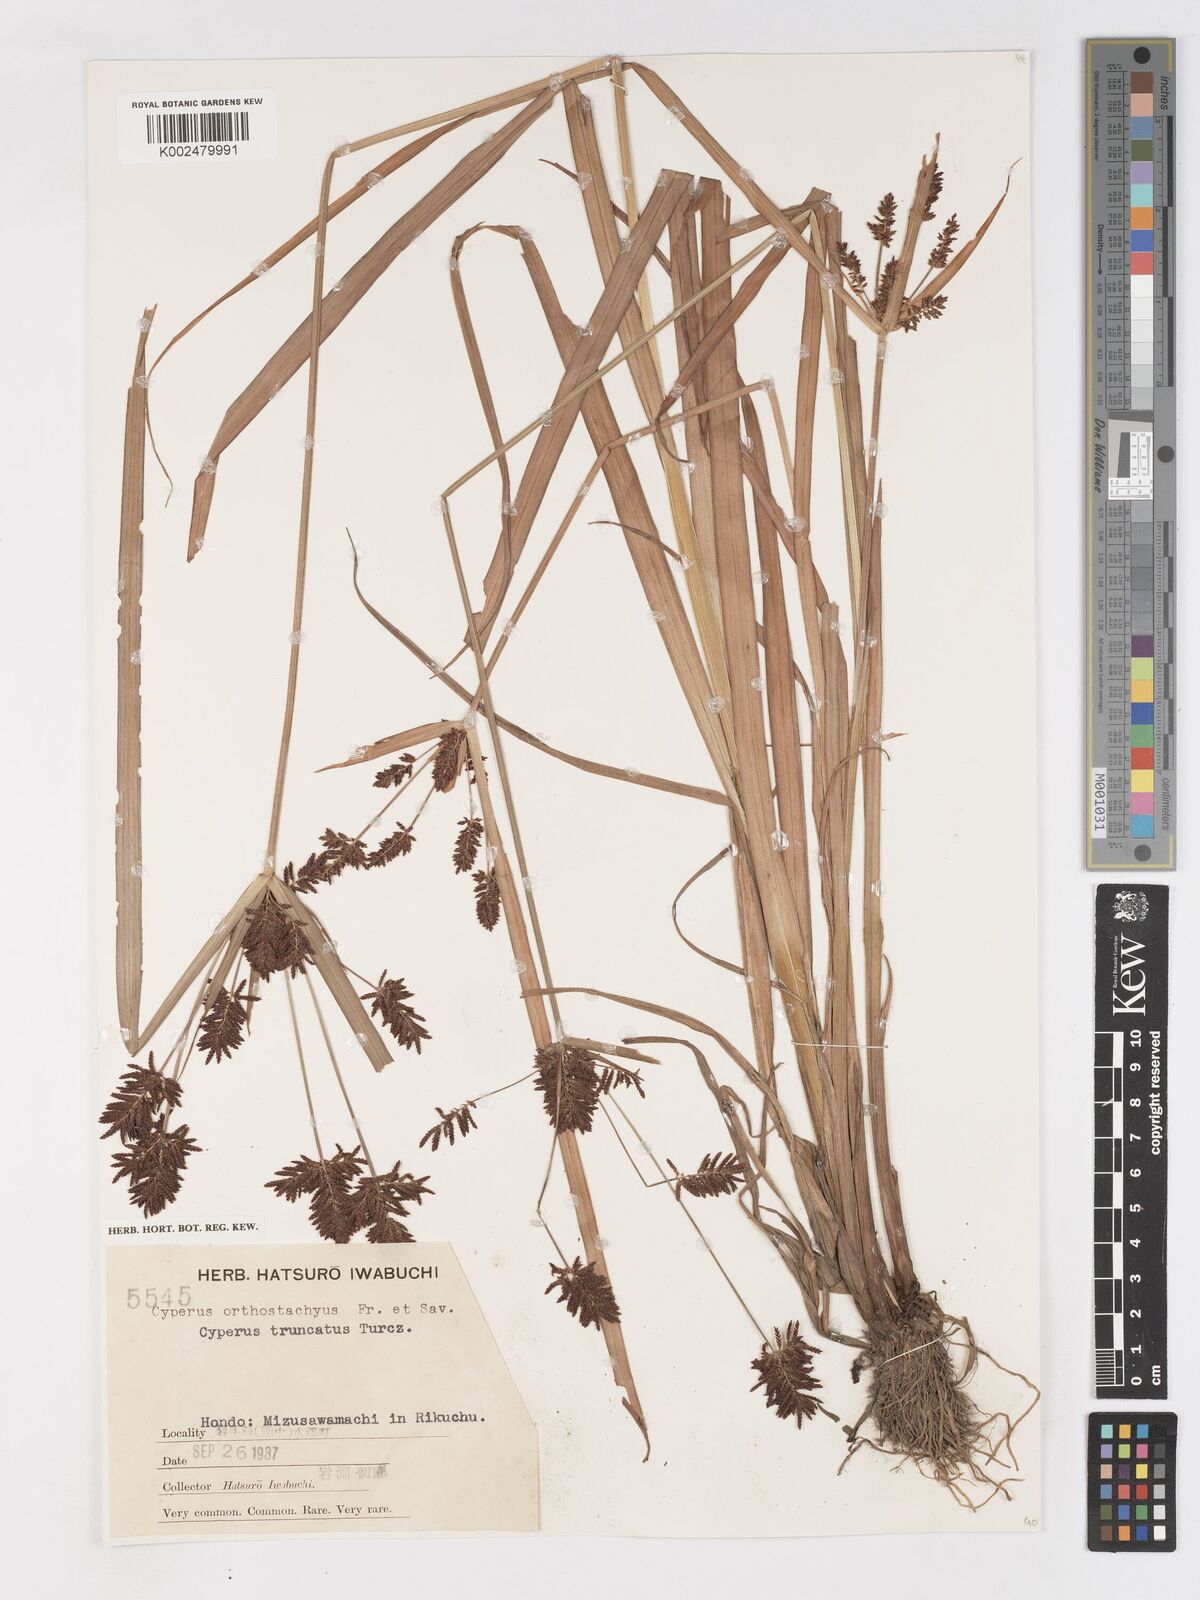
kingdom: Plantae
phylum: Tracheophyta
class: Liliopsida
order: Poales
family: Cyperaceae
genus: Cyperus
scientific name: Cyperus schimperianus
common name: Schimper flatsedge
